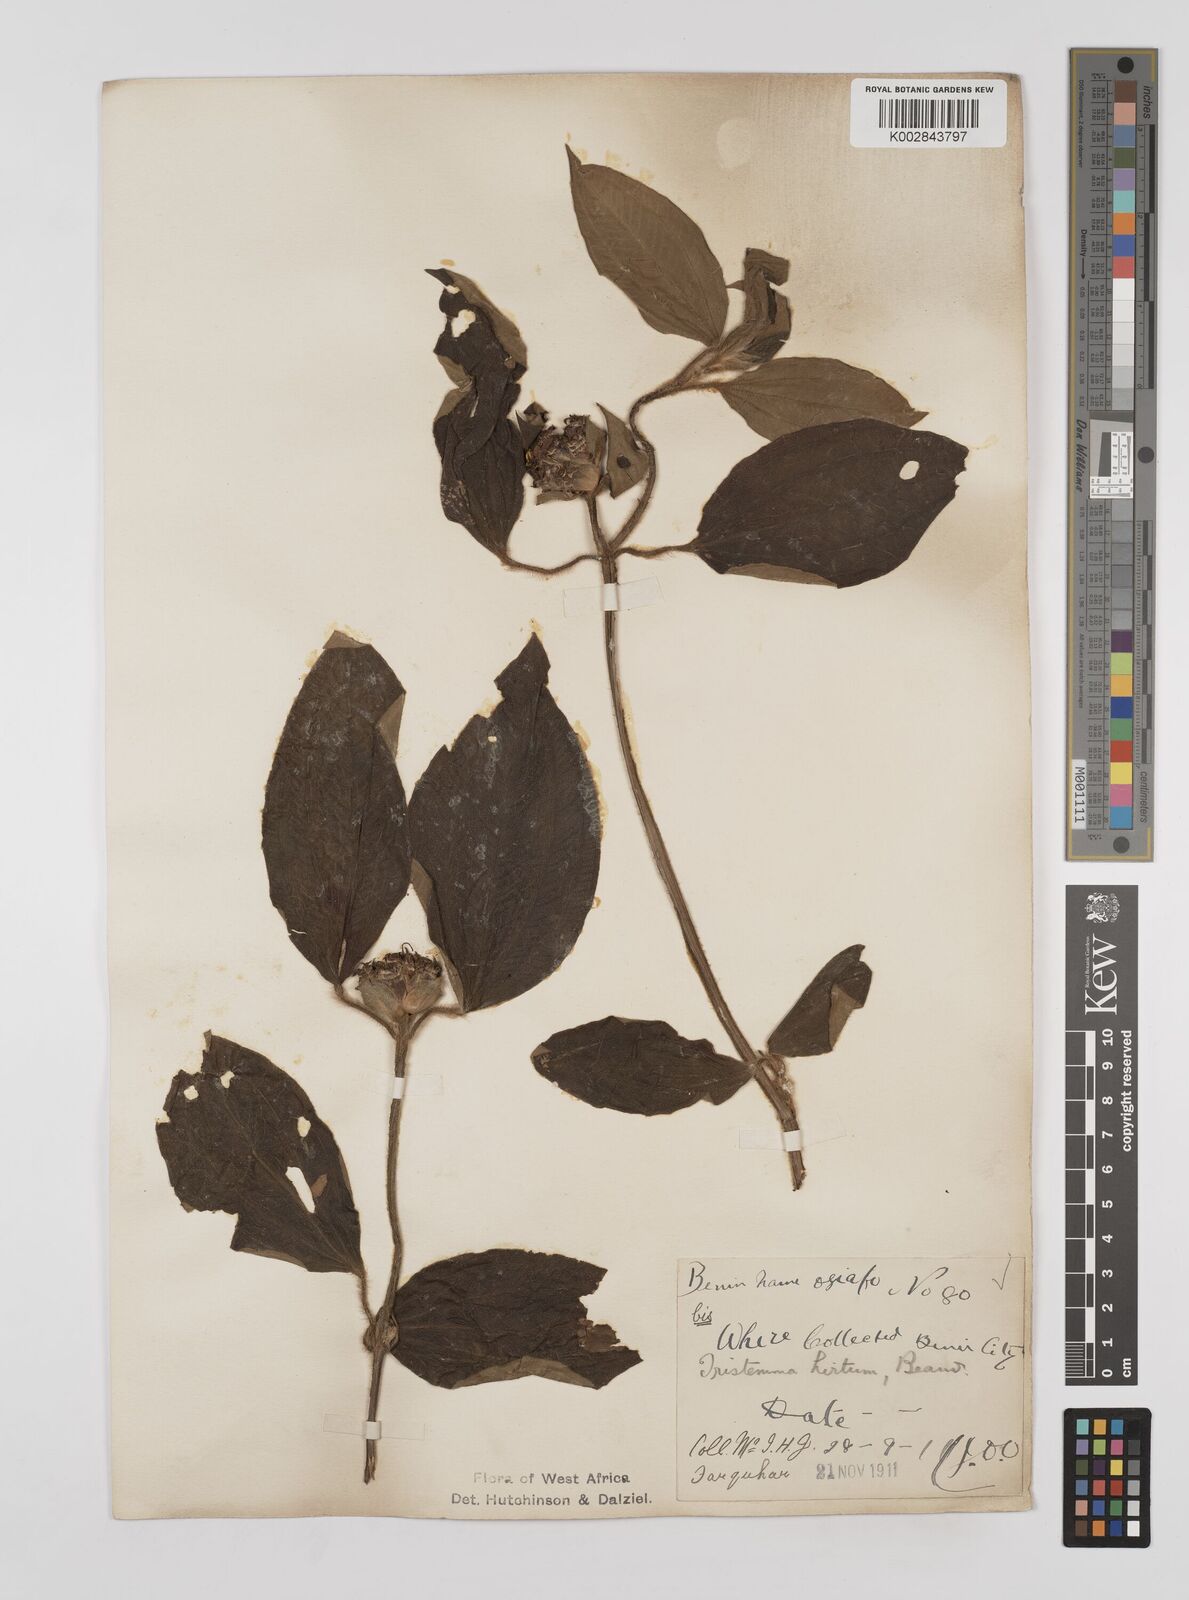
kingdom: Plantae
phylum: Tracheophyta
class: Magnoliopsida
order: Myrtales
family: Melastomataceae
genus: Tristemma
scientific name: Tristemma hirtum
